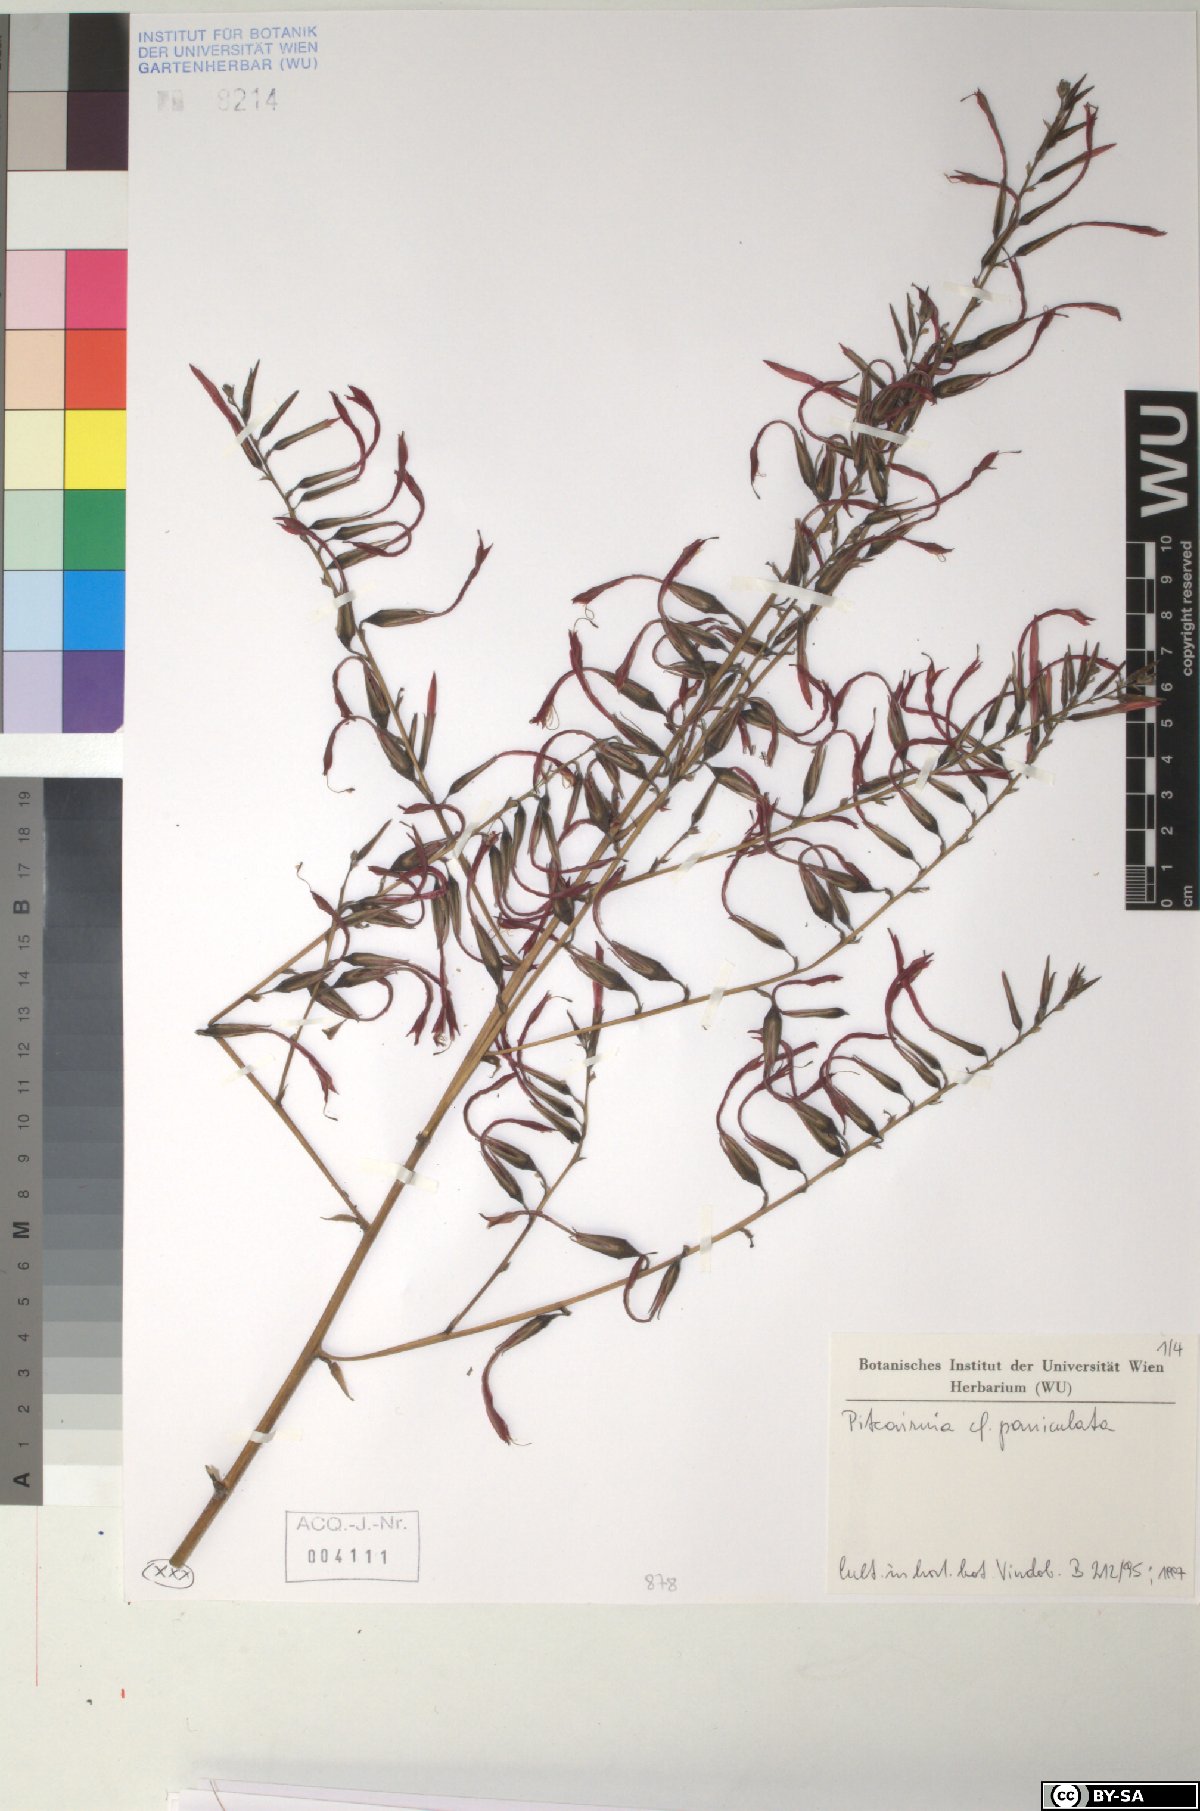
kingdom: Plantae
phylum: Tracheophyta
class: Liliopsida
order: Poales
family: Bromeliaceae
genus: Pitcairnia
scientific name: Pitcairnia paniculata
